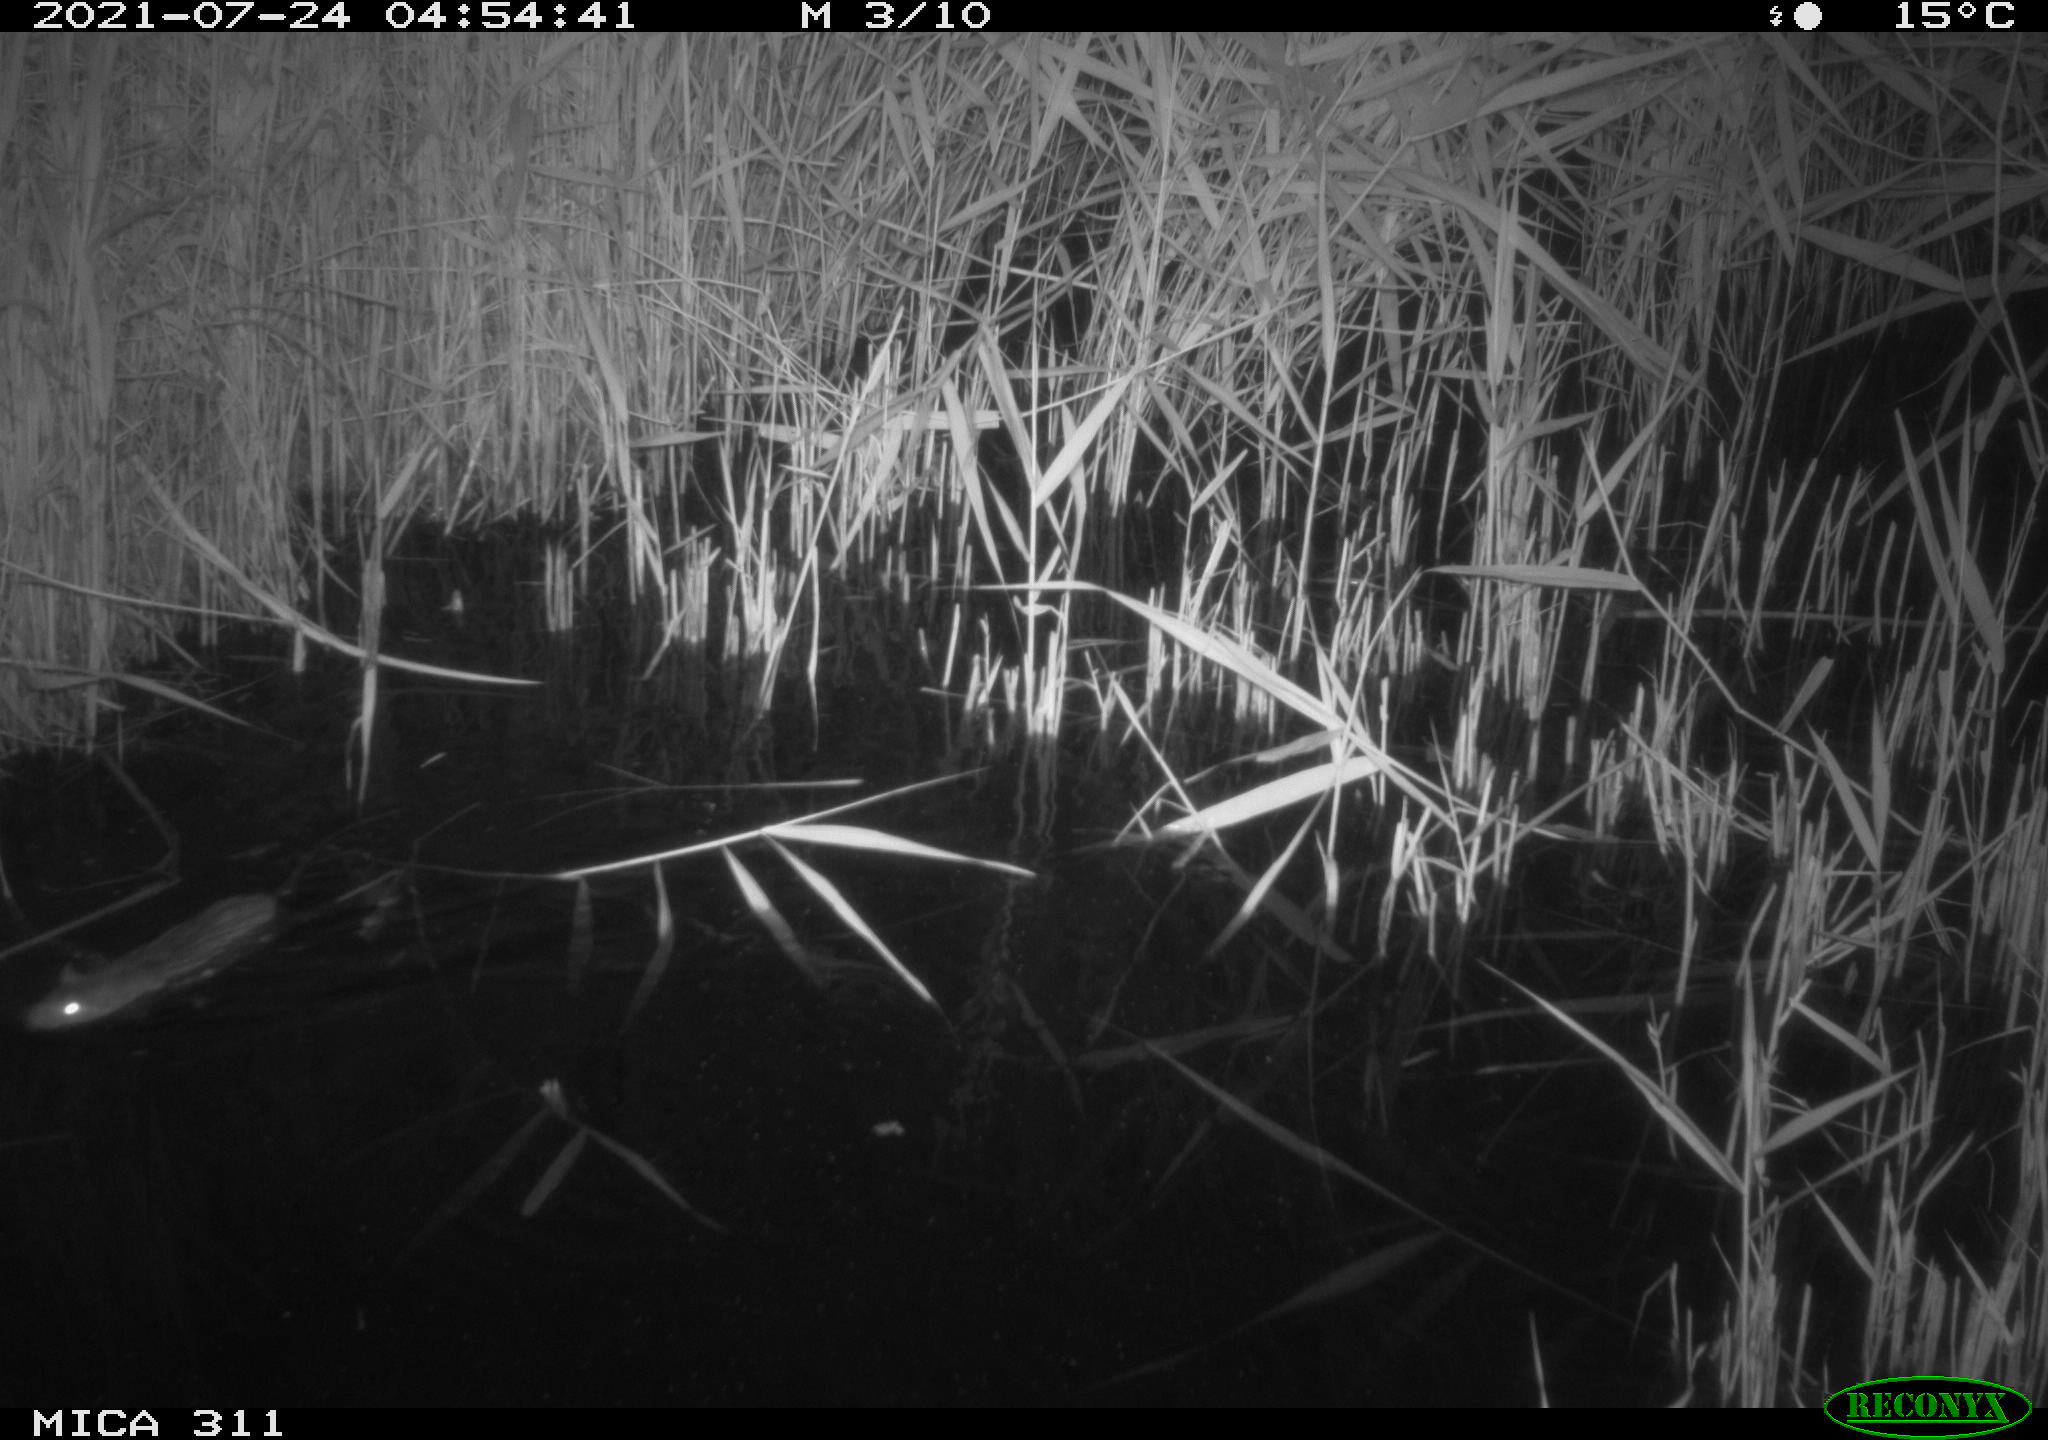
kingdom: Animalia
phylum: Chordata
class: Mammalia
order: Rodentia
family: Muridae
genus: Rattus
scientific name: Rattus norvegicus
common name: Brown rat
